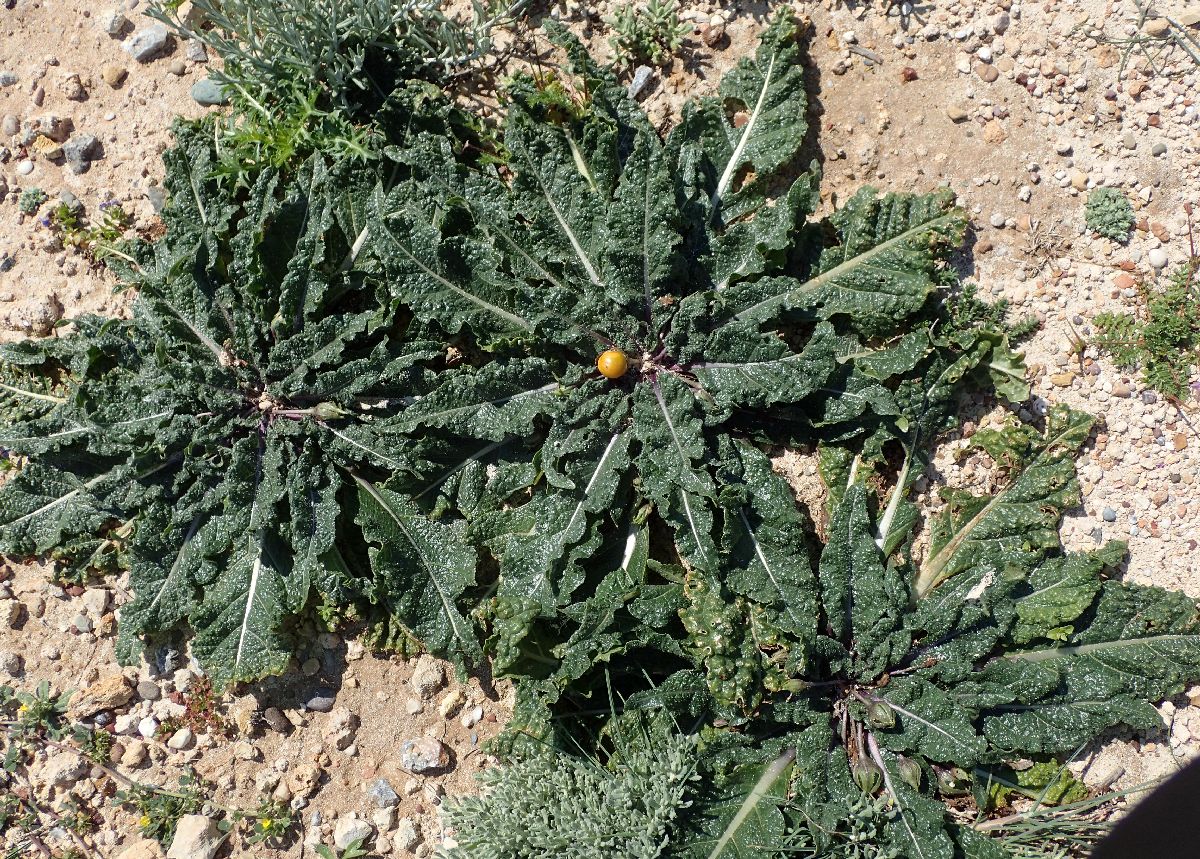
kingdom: Plantae
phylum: Tracheophyta
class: Magnoliopsida
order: Solanales
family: Solanaceae
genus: Mandragora
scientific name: Mandragora officinarum
